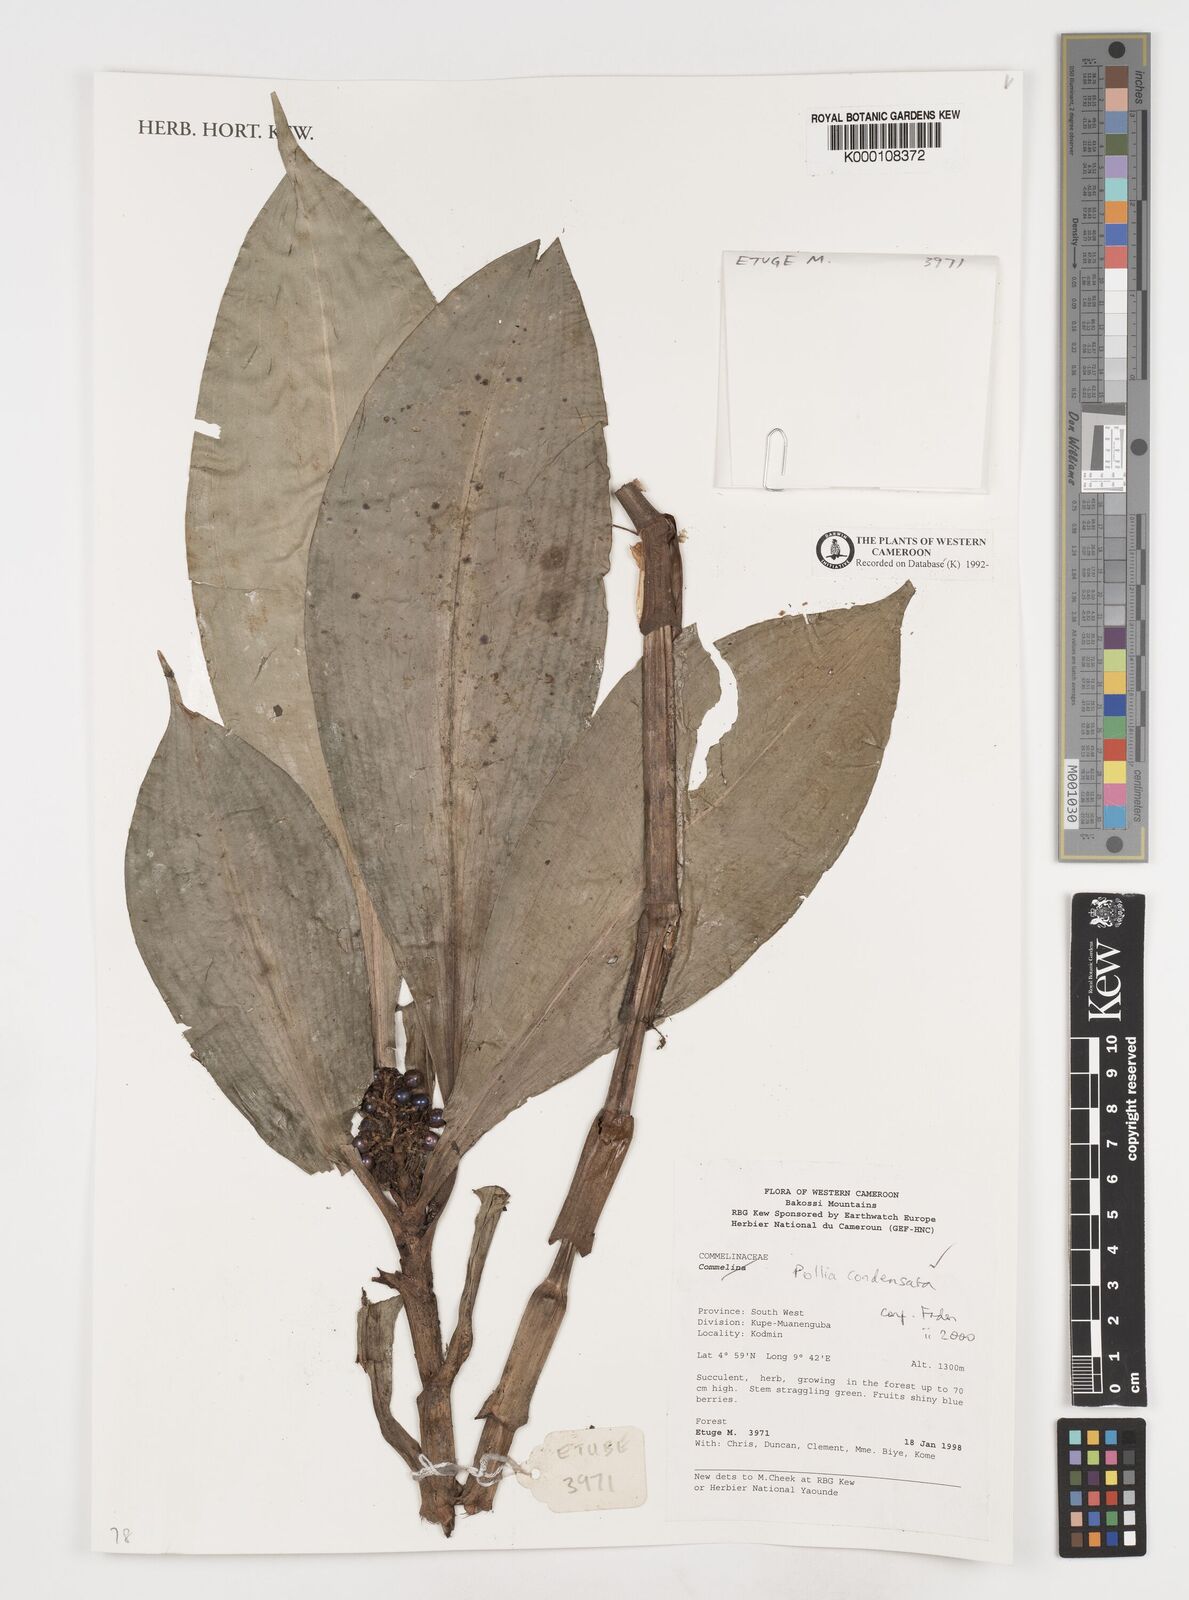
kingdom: Plantae
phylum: Tracheophyta
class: Liliopsida
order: Commelinales
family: Commelinaceae
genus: Pollia
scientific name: Pollia condensata
